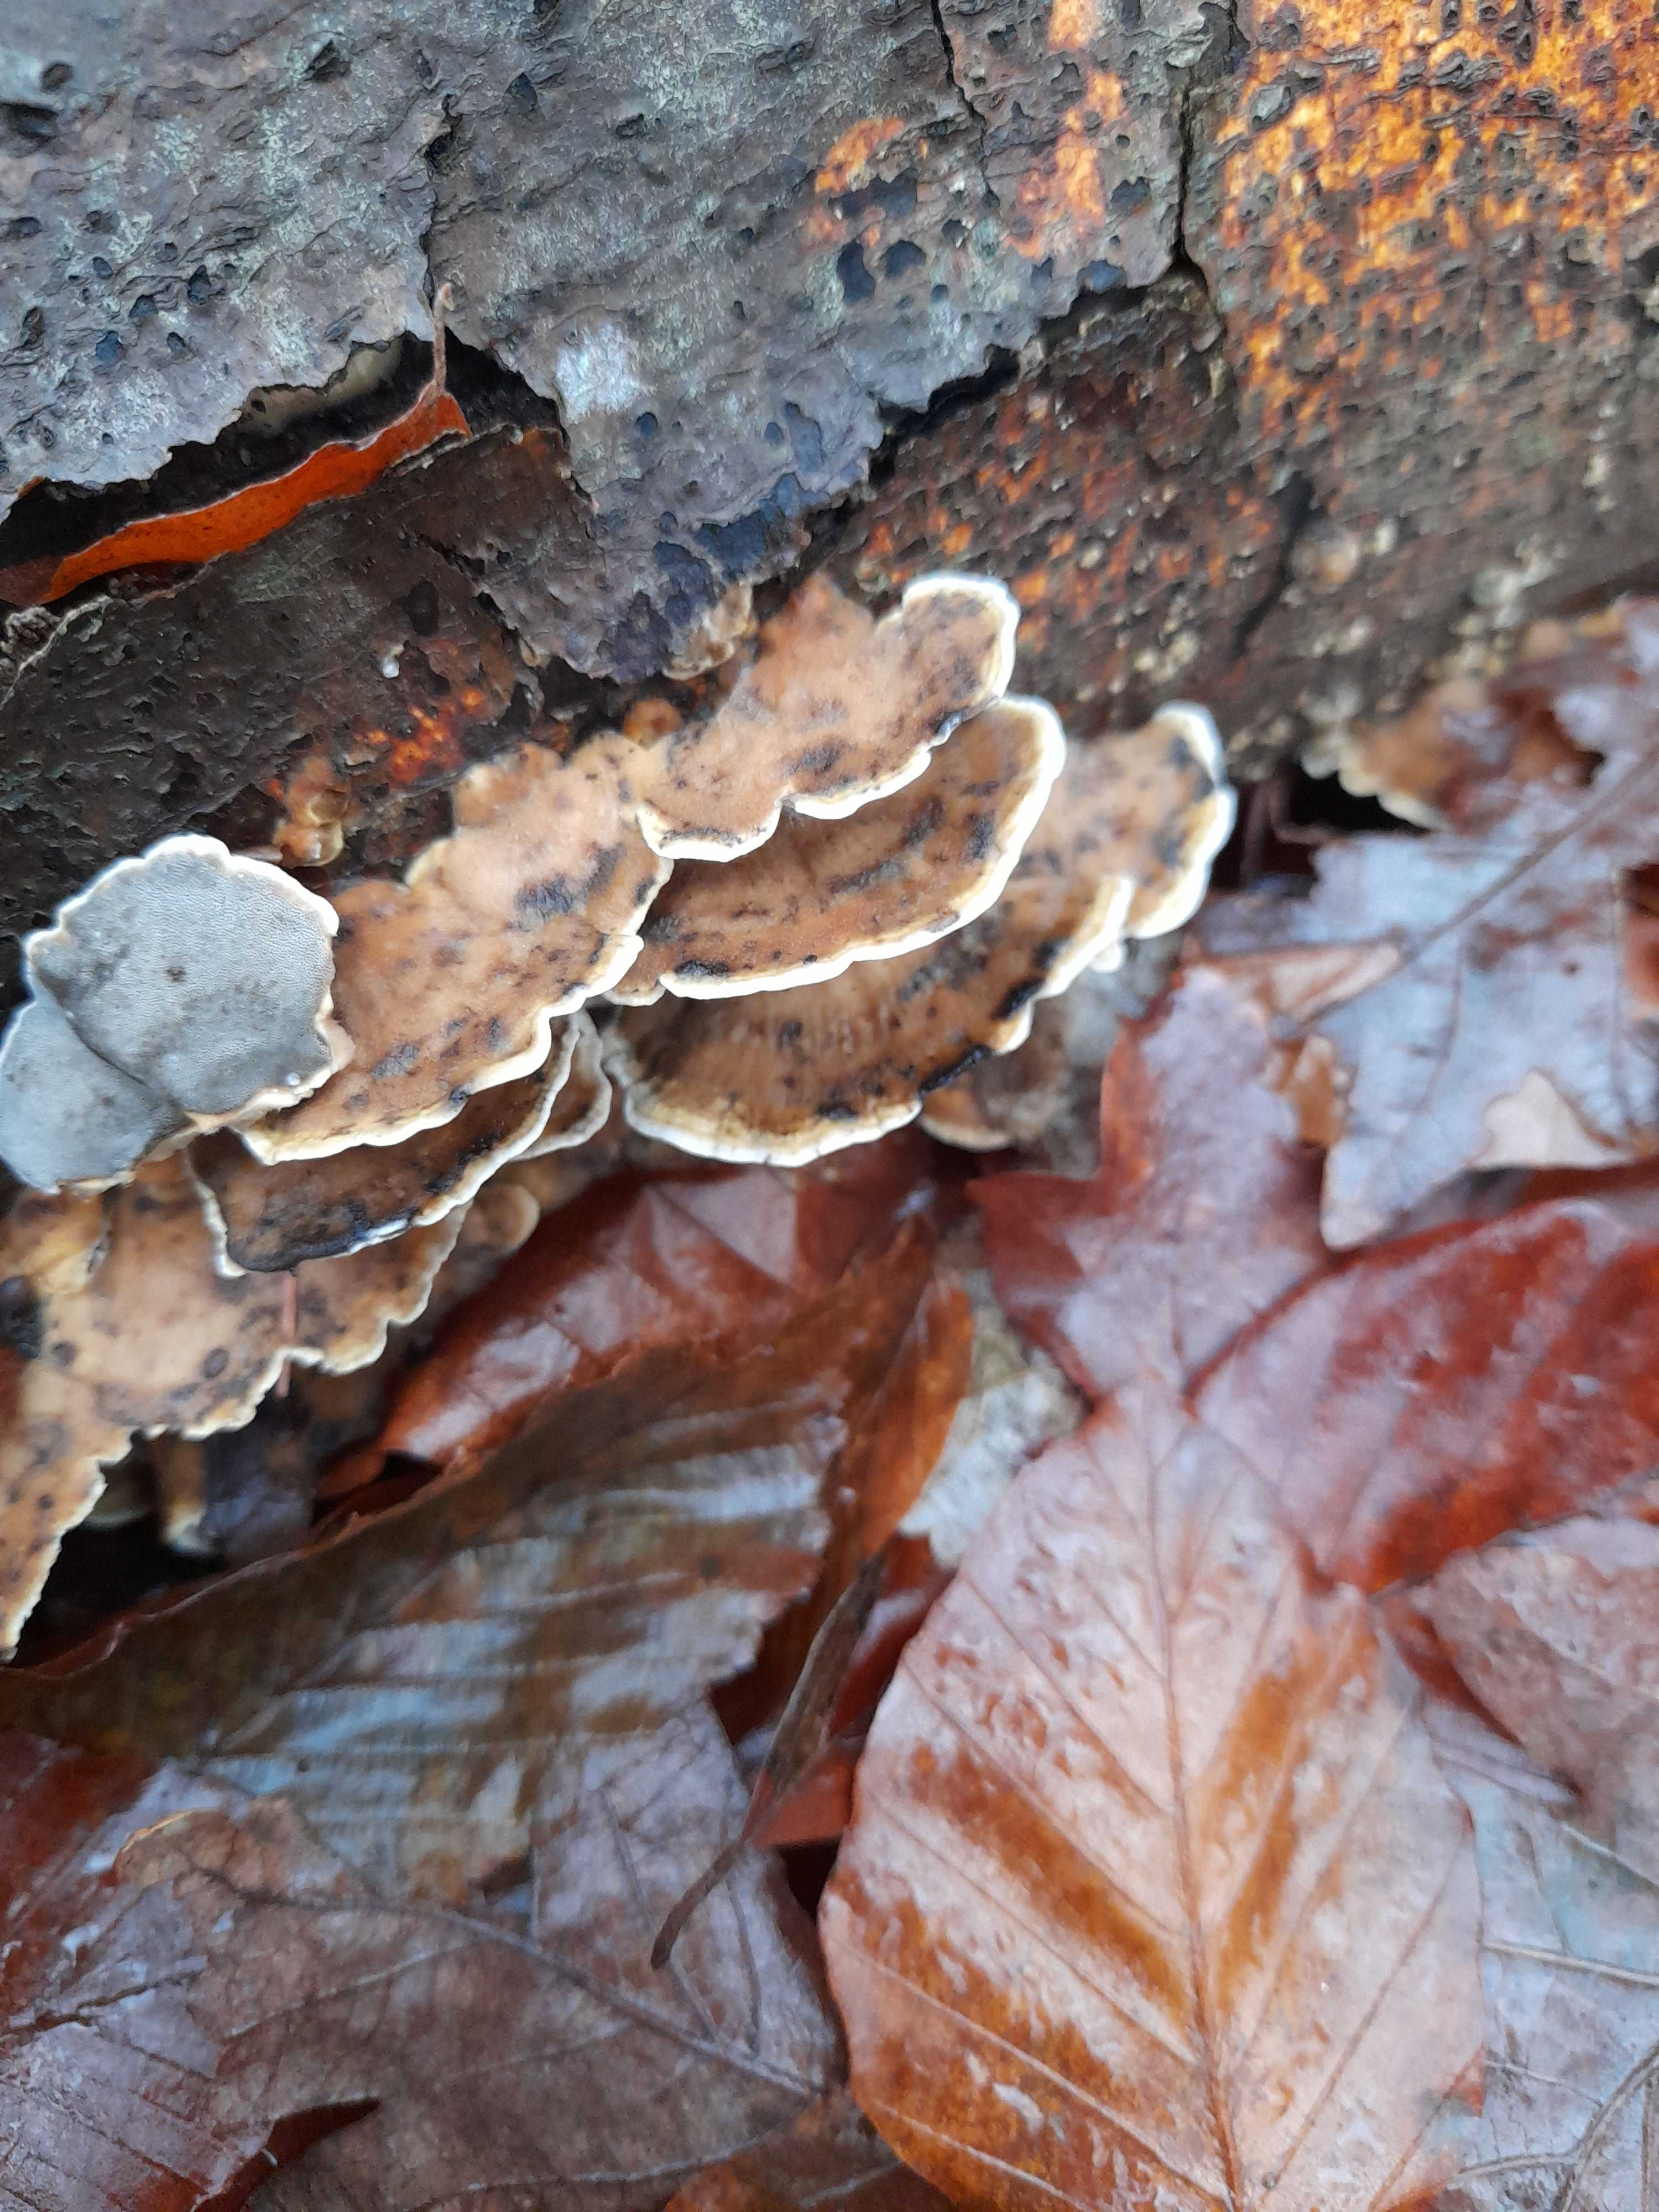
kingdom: Fungi
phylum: Basidiomycota
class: Agaricomycetes
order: Polyporales
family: Phanerochaetaceae
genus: Bjerkandera
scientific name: Bjerkandera adusta
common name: sveden sodporesvamp
